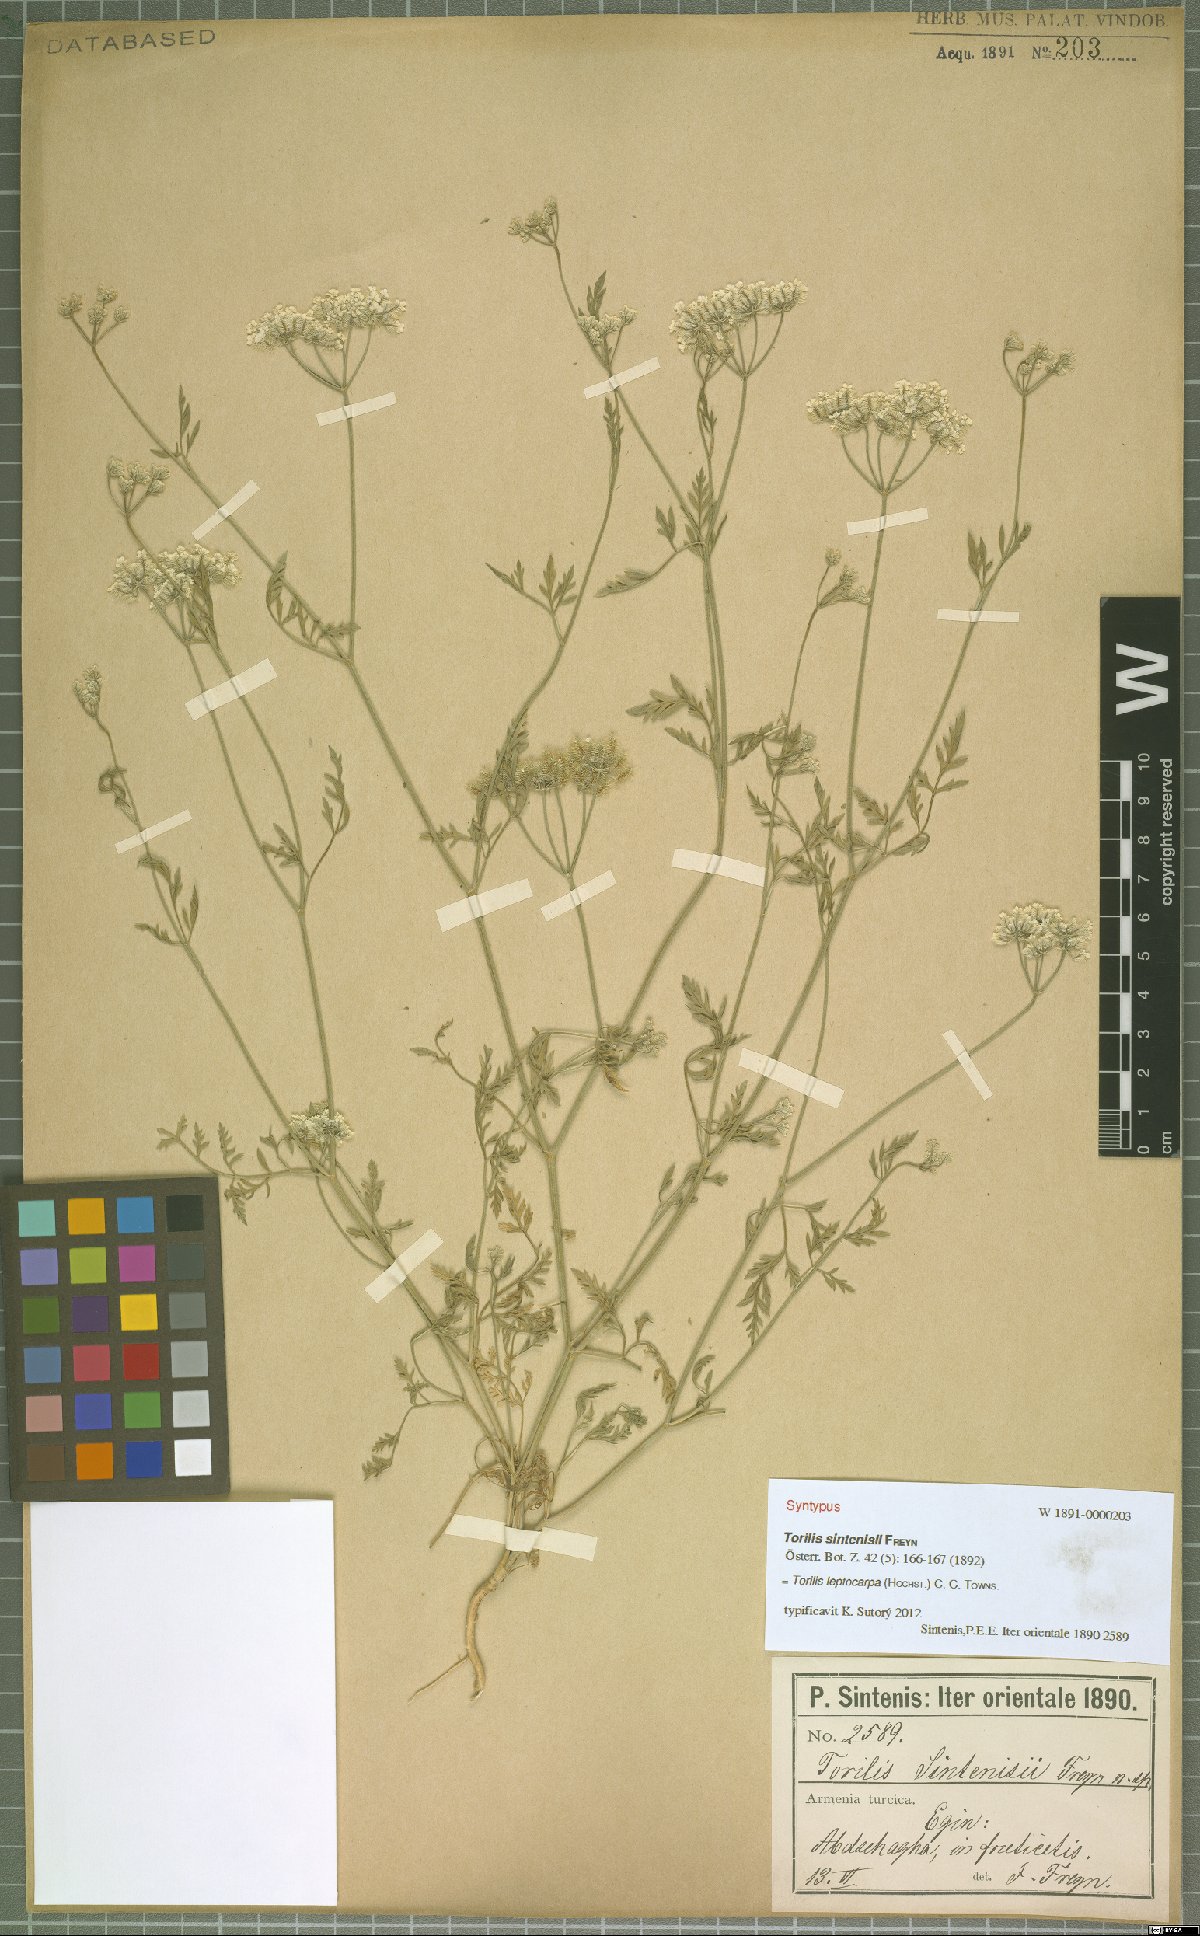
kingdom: Plantae
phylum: Tracheophyta
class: Magnoliopsida
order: Apiales
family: Apiaceae
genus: Torilis
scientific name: Torilis leptocarpa
